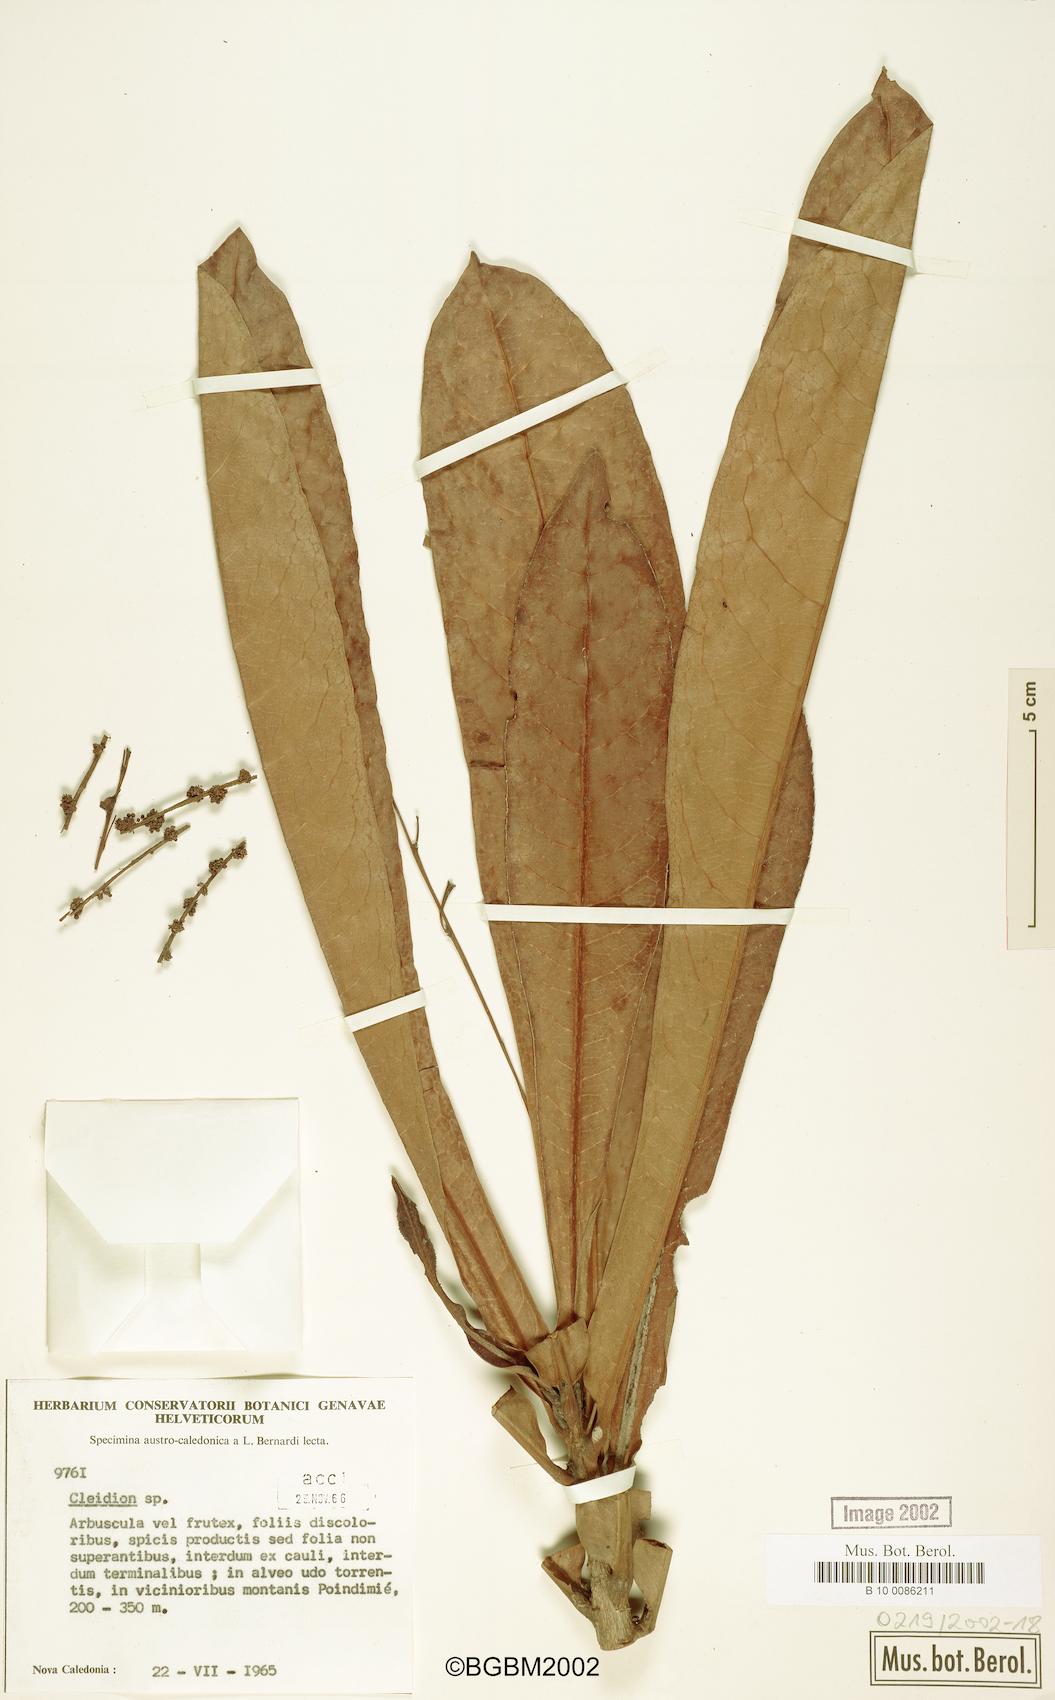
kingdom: Plantae
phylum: Tracheophyta
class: Magnoliopsida
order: Malpighiales
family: Euphorbiaceae
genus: Cleidion
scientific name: Cleidion
